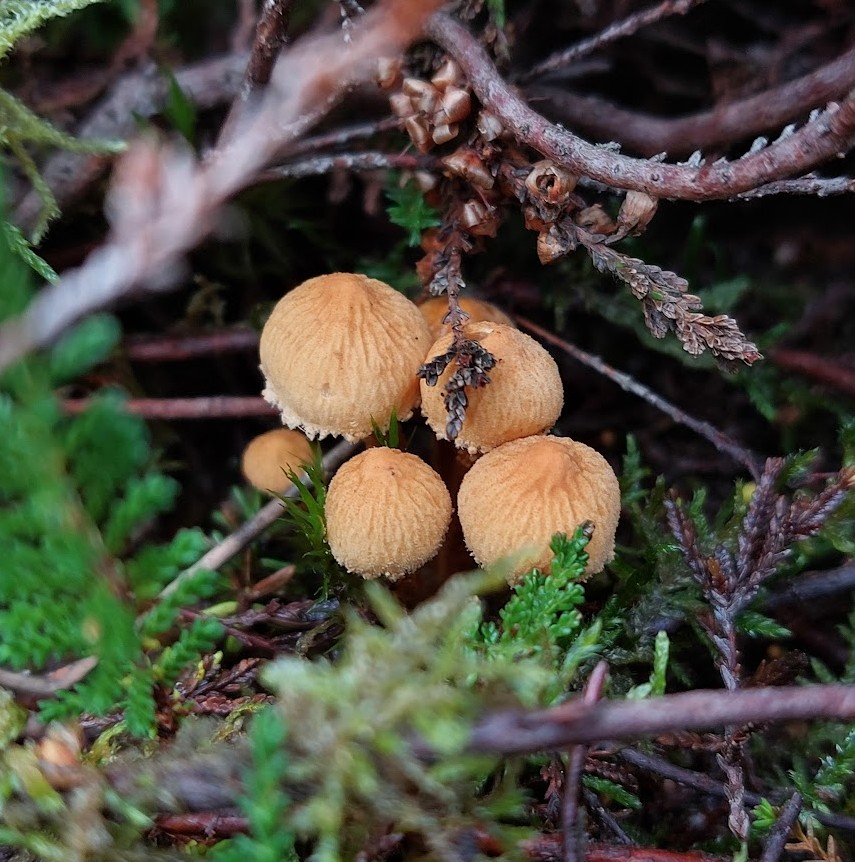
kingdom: Fungi
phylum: Basidiomycota
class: Agaricomycetes
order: Agaricales
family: Tricholomataceae
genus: Cystoderma
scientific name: Cystoderma amianthinum
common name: okkergul grynhat
